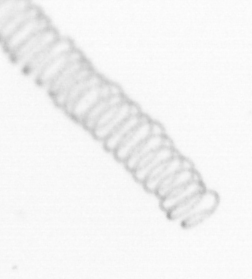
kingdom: Chromista
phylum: Ochrophyta
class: Bacillariophyceae
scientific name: Bacillariophyceae
